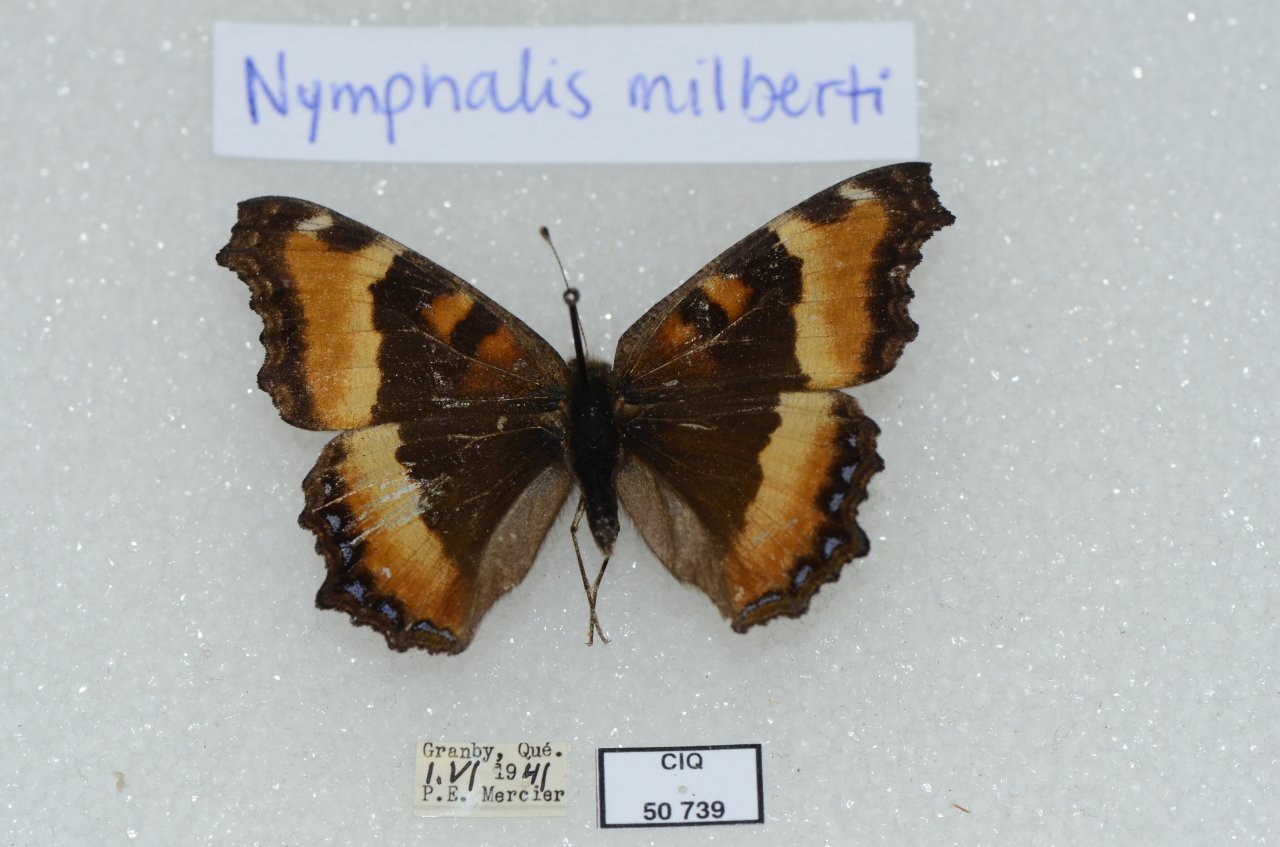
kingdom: Animalia
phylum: Arthropoda
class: Insecta
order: Lepidoptera
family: Nymphalidae
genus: Aglais
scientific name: Aglais milberti
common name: Milbert's Tortoiseshell
